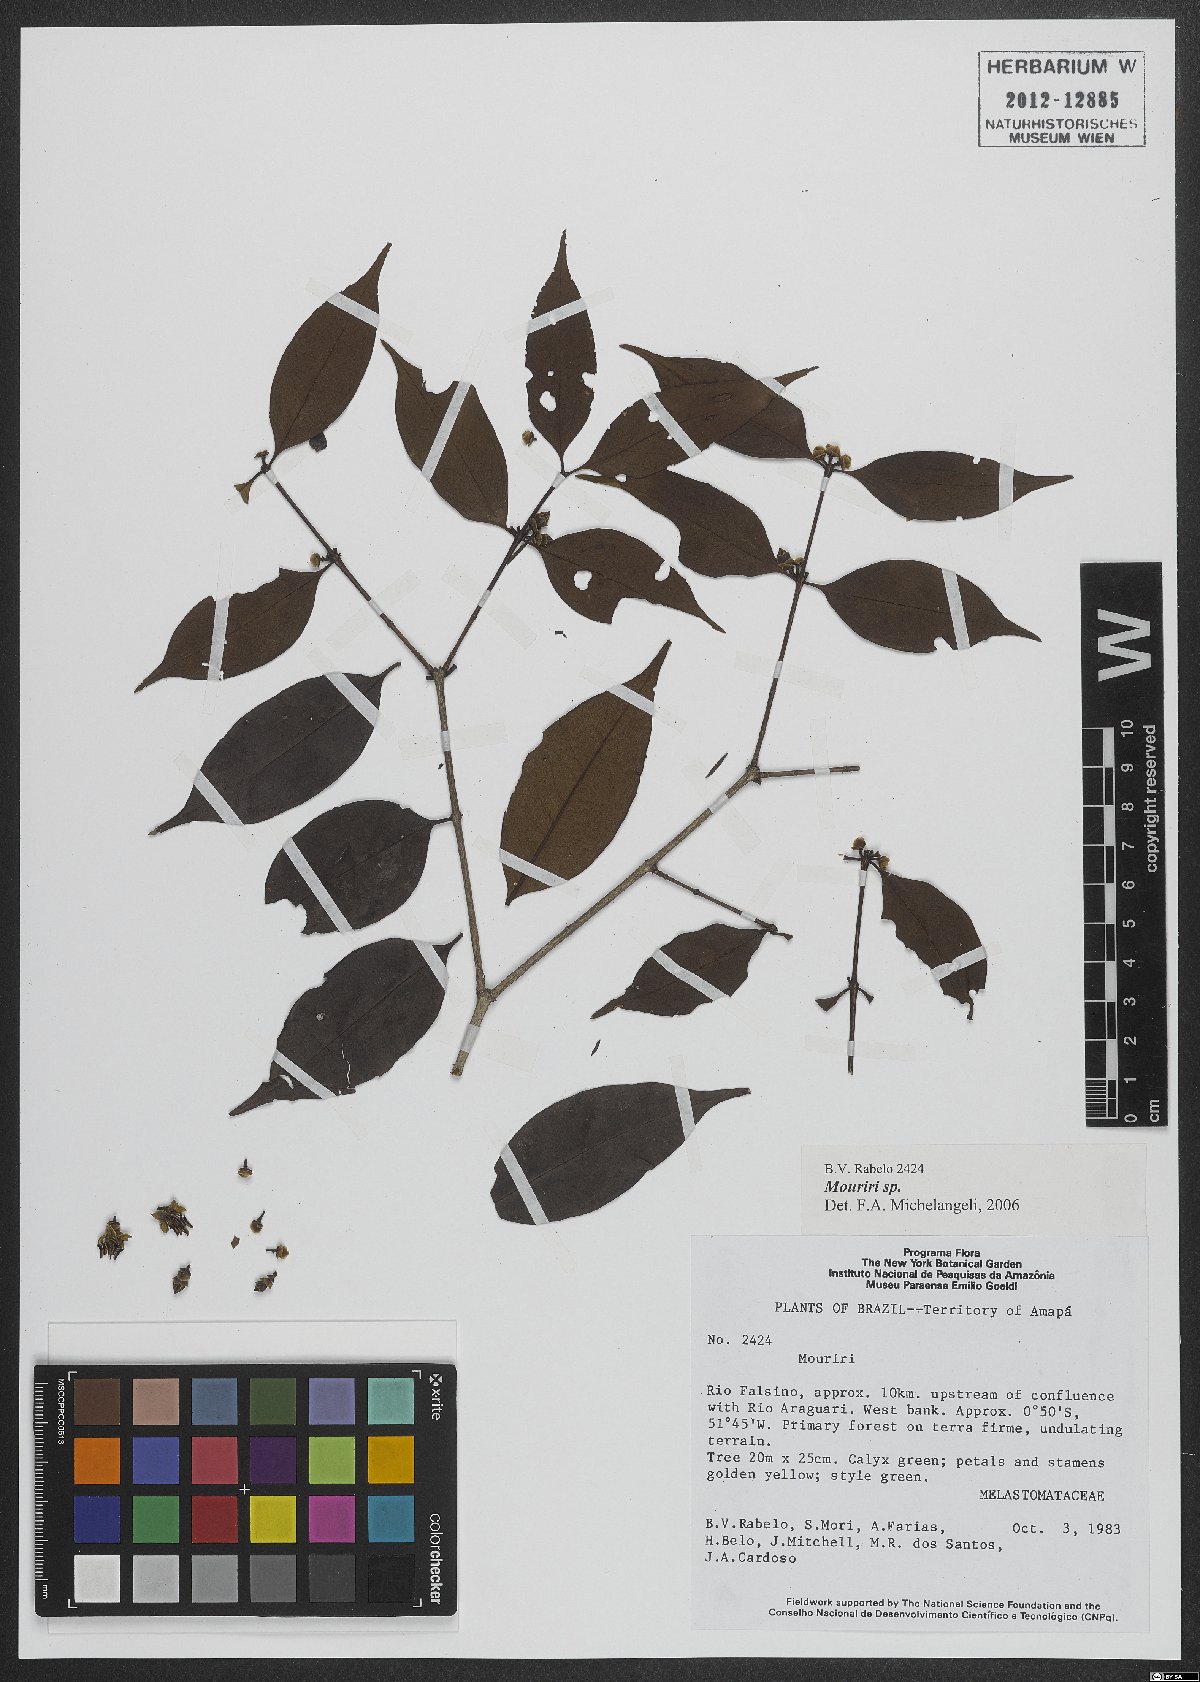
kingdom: Plantae
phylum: Tracheophyta
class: Magnoliopsida
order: Myrtales
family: Melastomataceae
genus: Mouriri
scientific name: Mouriri
